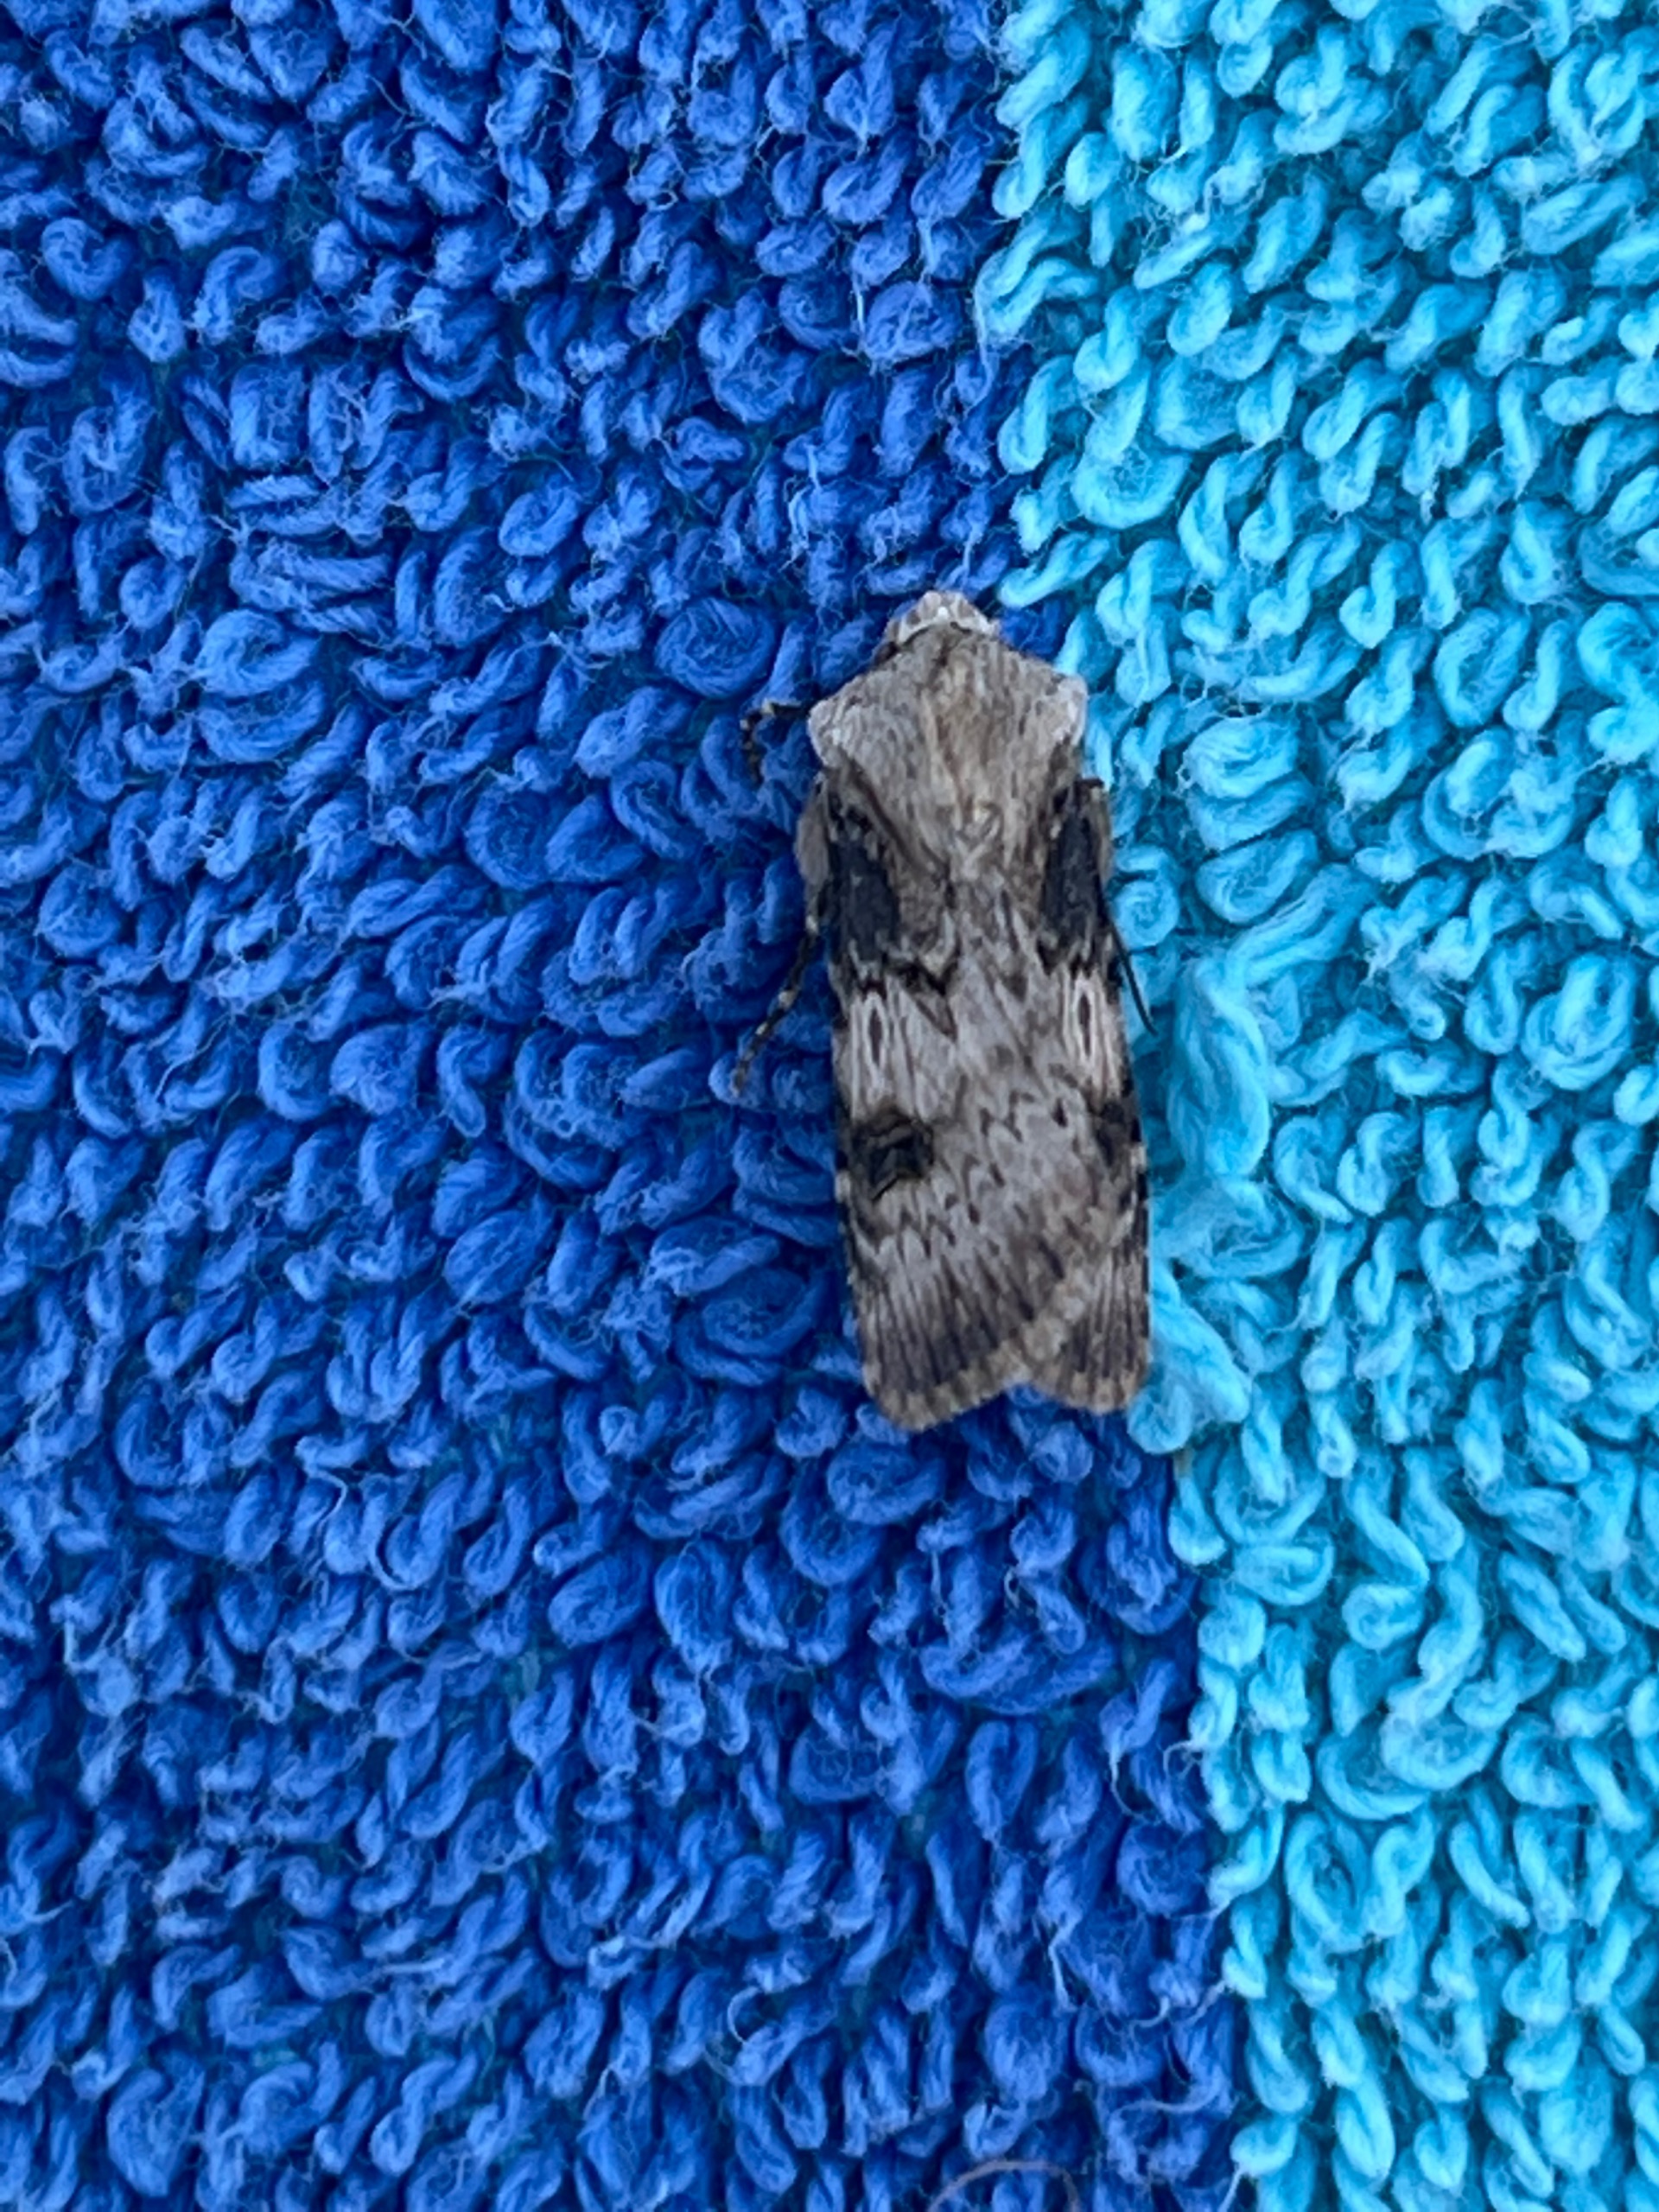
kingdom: Animalia
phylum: Arthropoda
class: Insecta
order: Lepidoptera
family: Noctuidae
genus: Agrotis
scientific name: Agrotis puta
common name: Frønnet landmand
